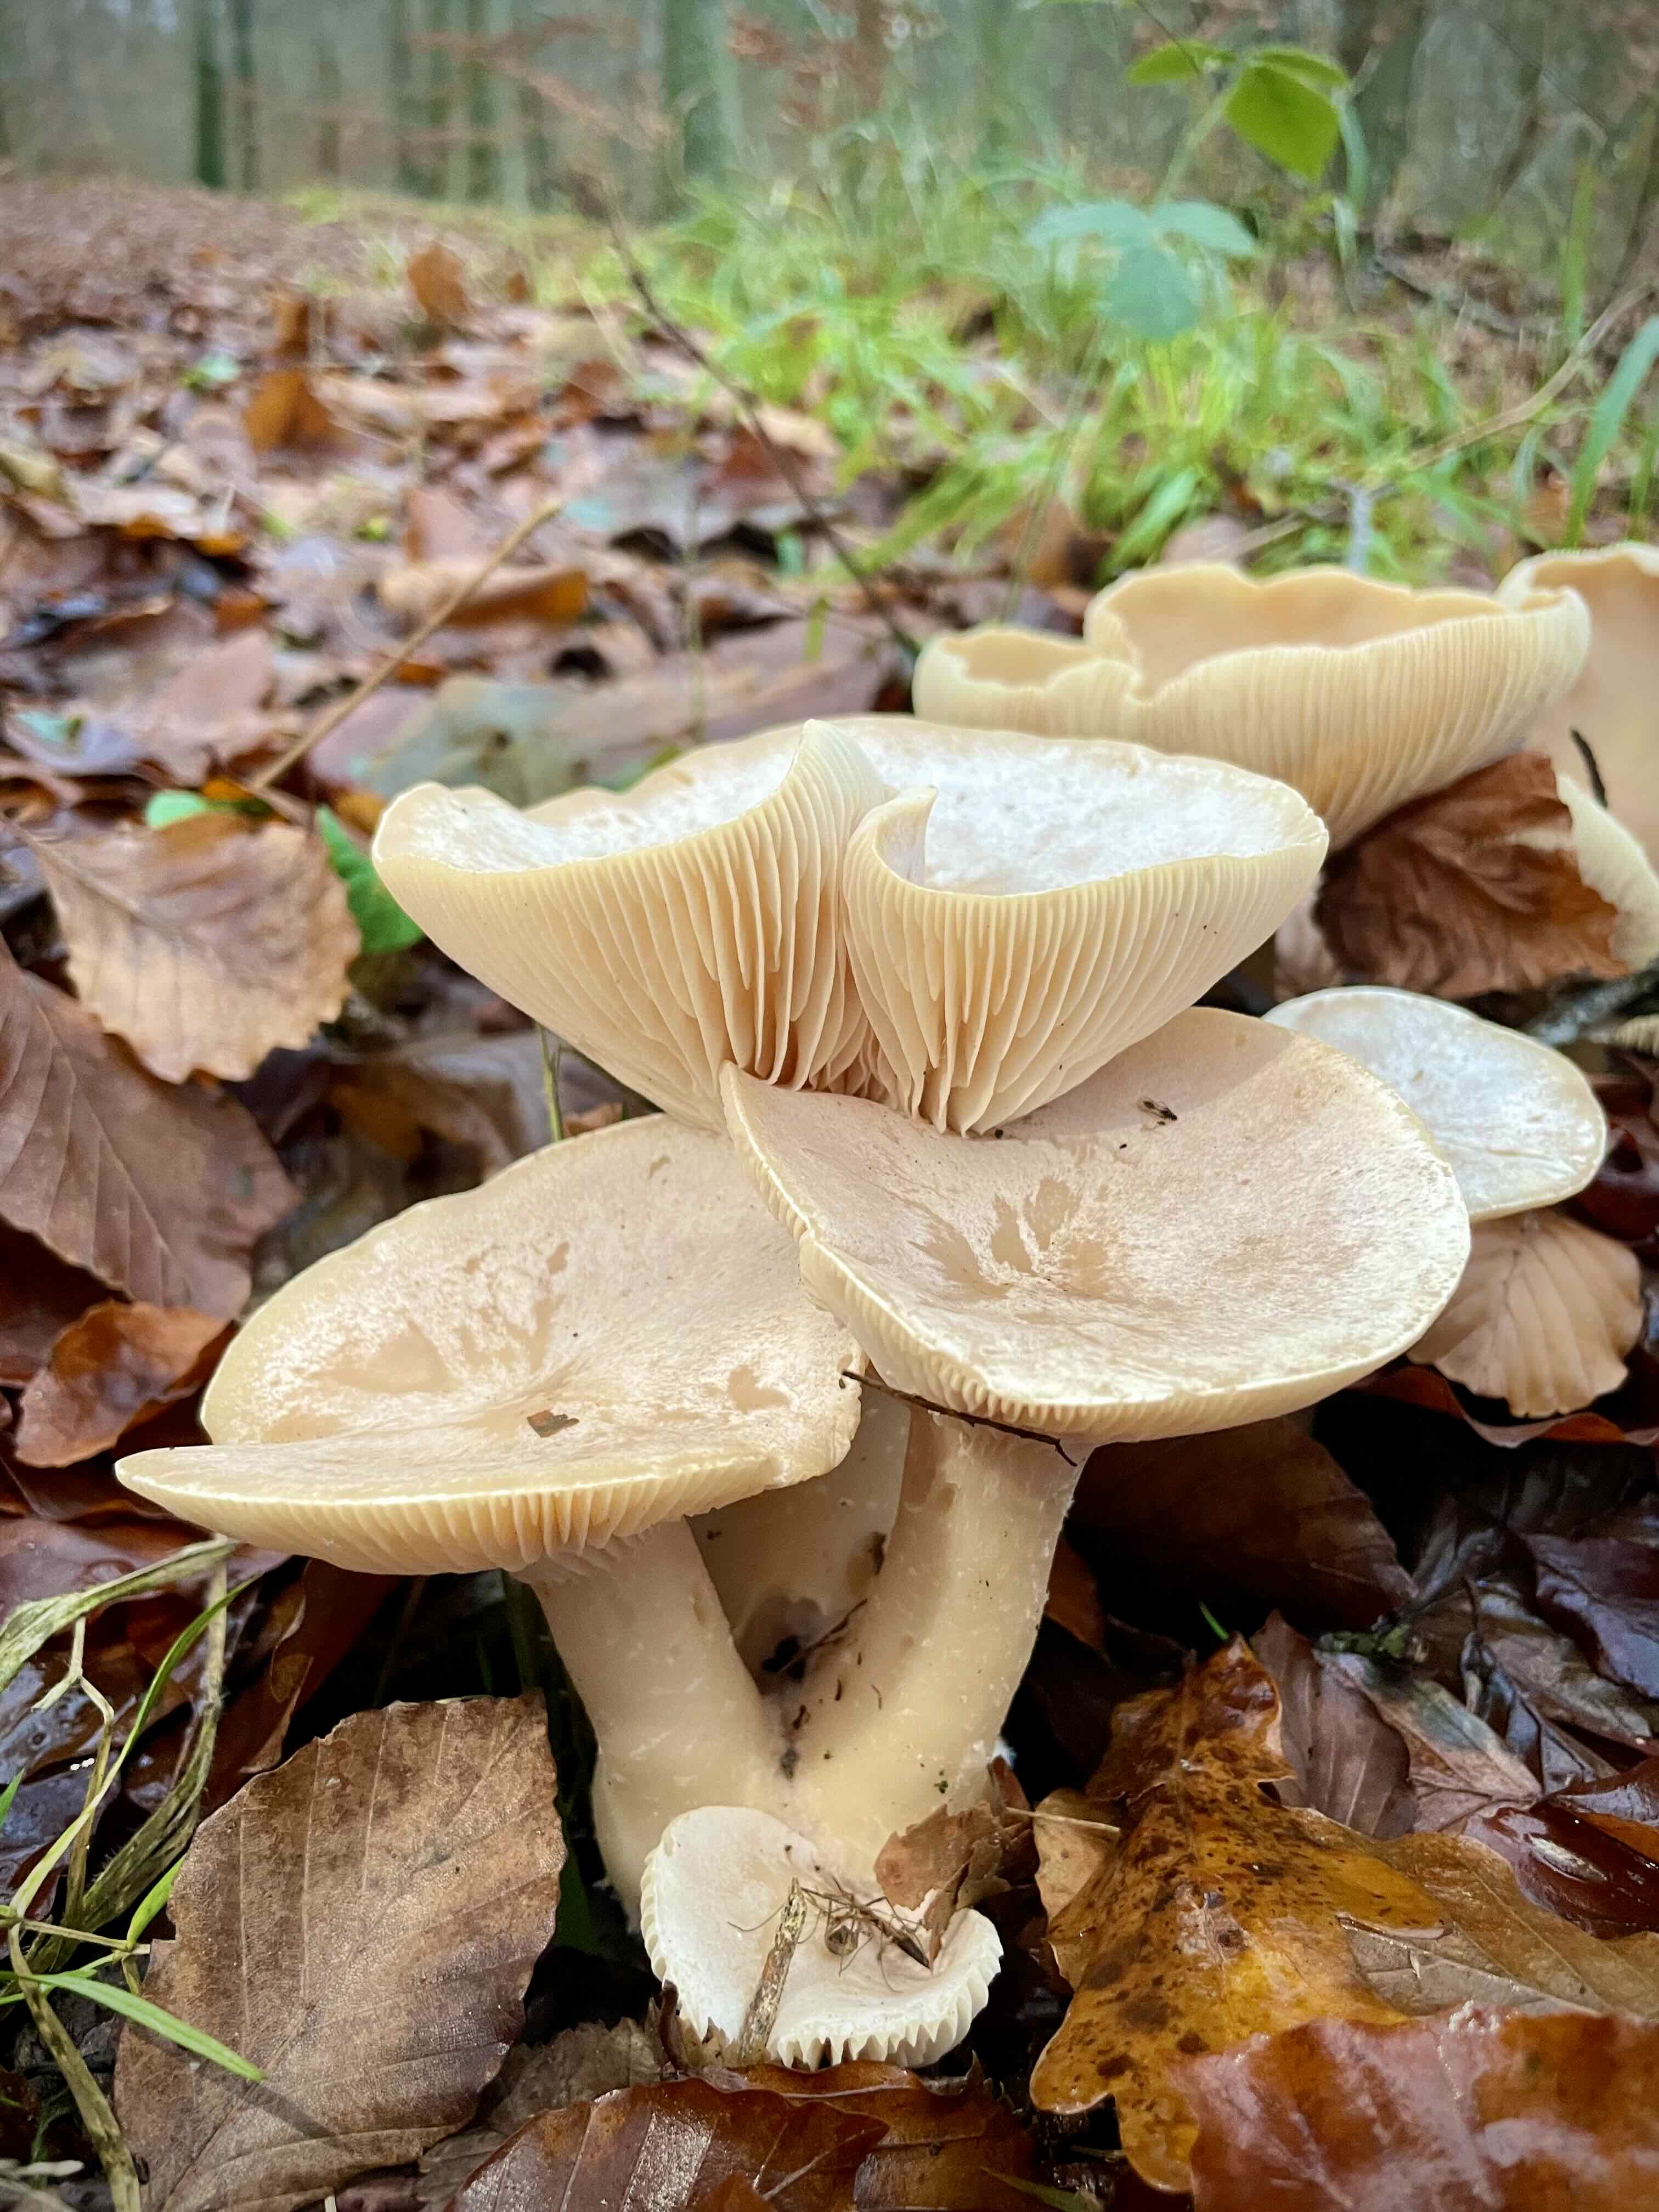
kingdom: Fungi
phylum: Basidiomycota
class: Agaricomycetes
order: Agaricales
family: Tricholomataceae
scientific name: Tricholomataceae
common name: ridderhatfamilien
